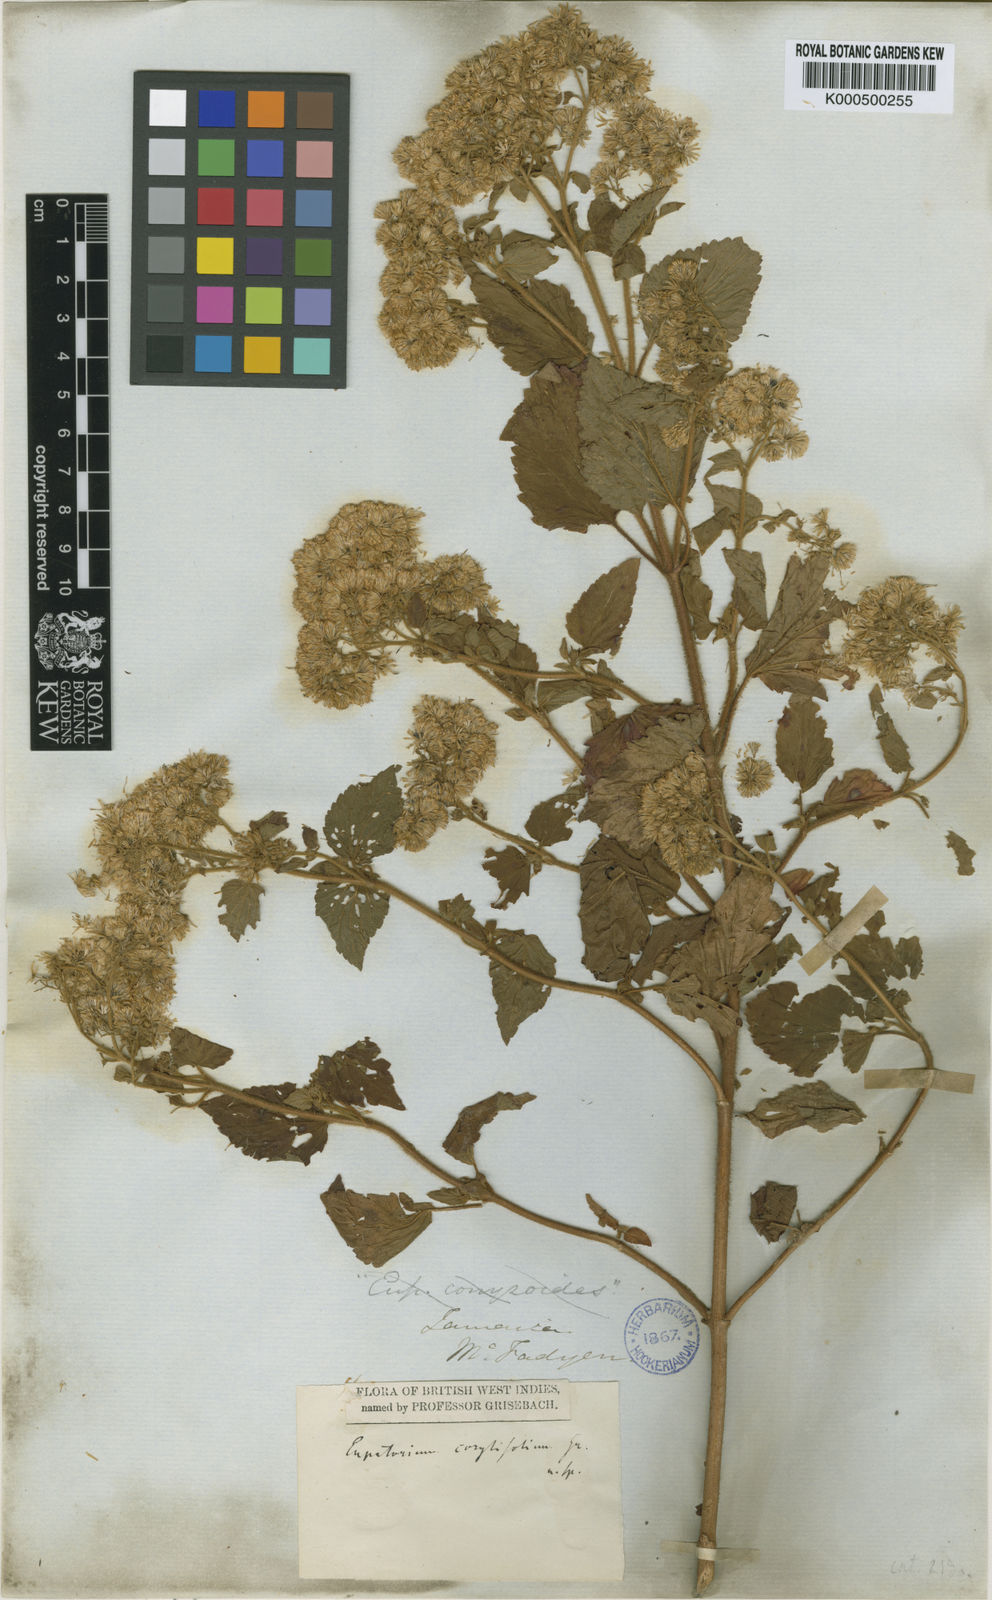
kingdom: Plantae
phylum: Tracheophyta
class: Magnoliopsida
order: Asterales
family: Asteraceae
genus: Ageratina
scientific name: Ageratina corylifolia
